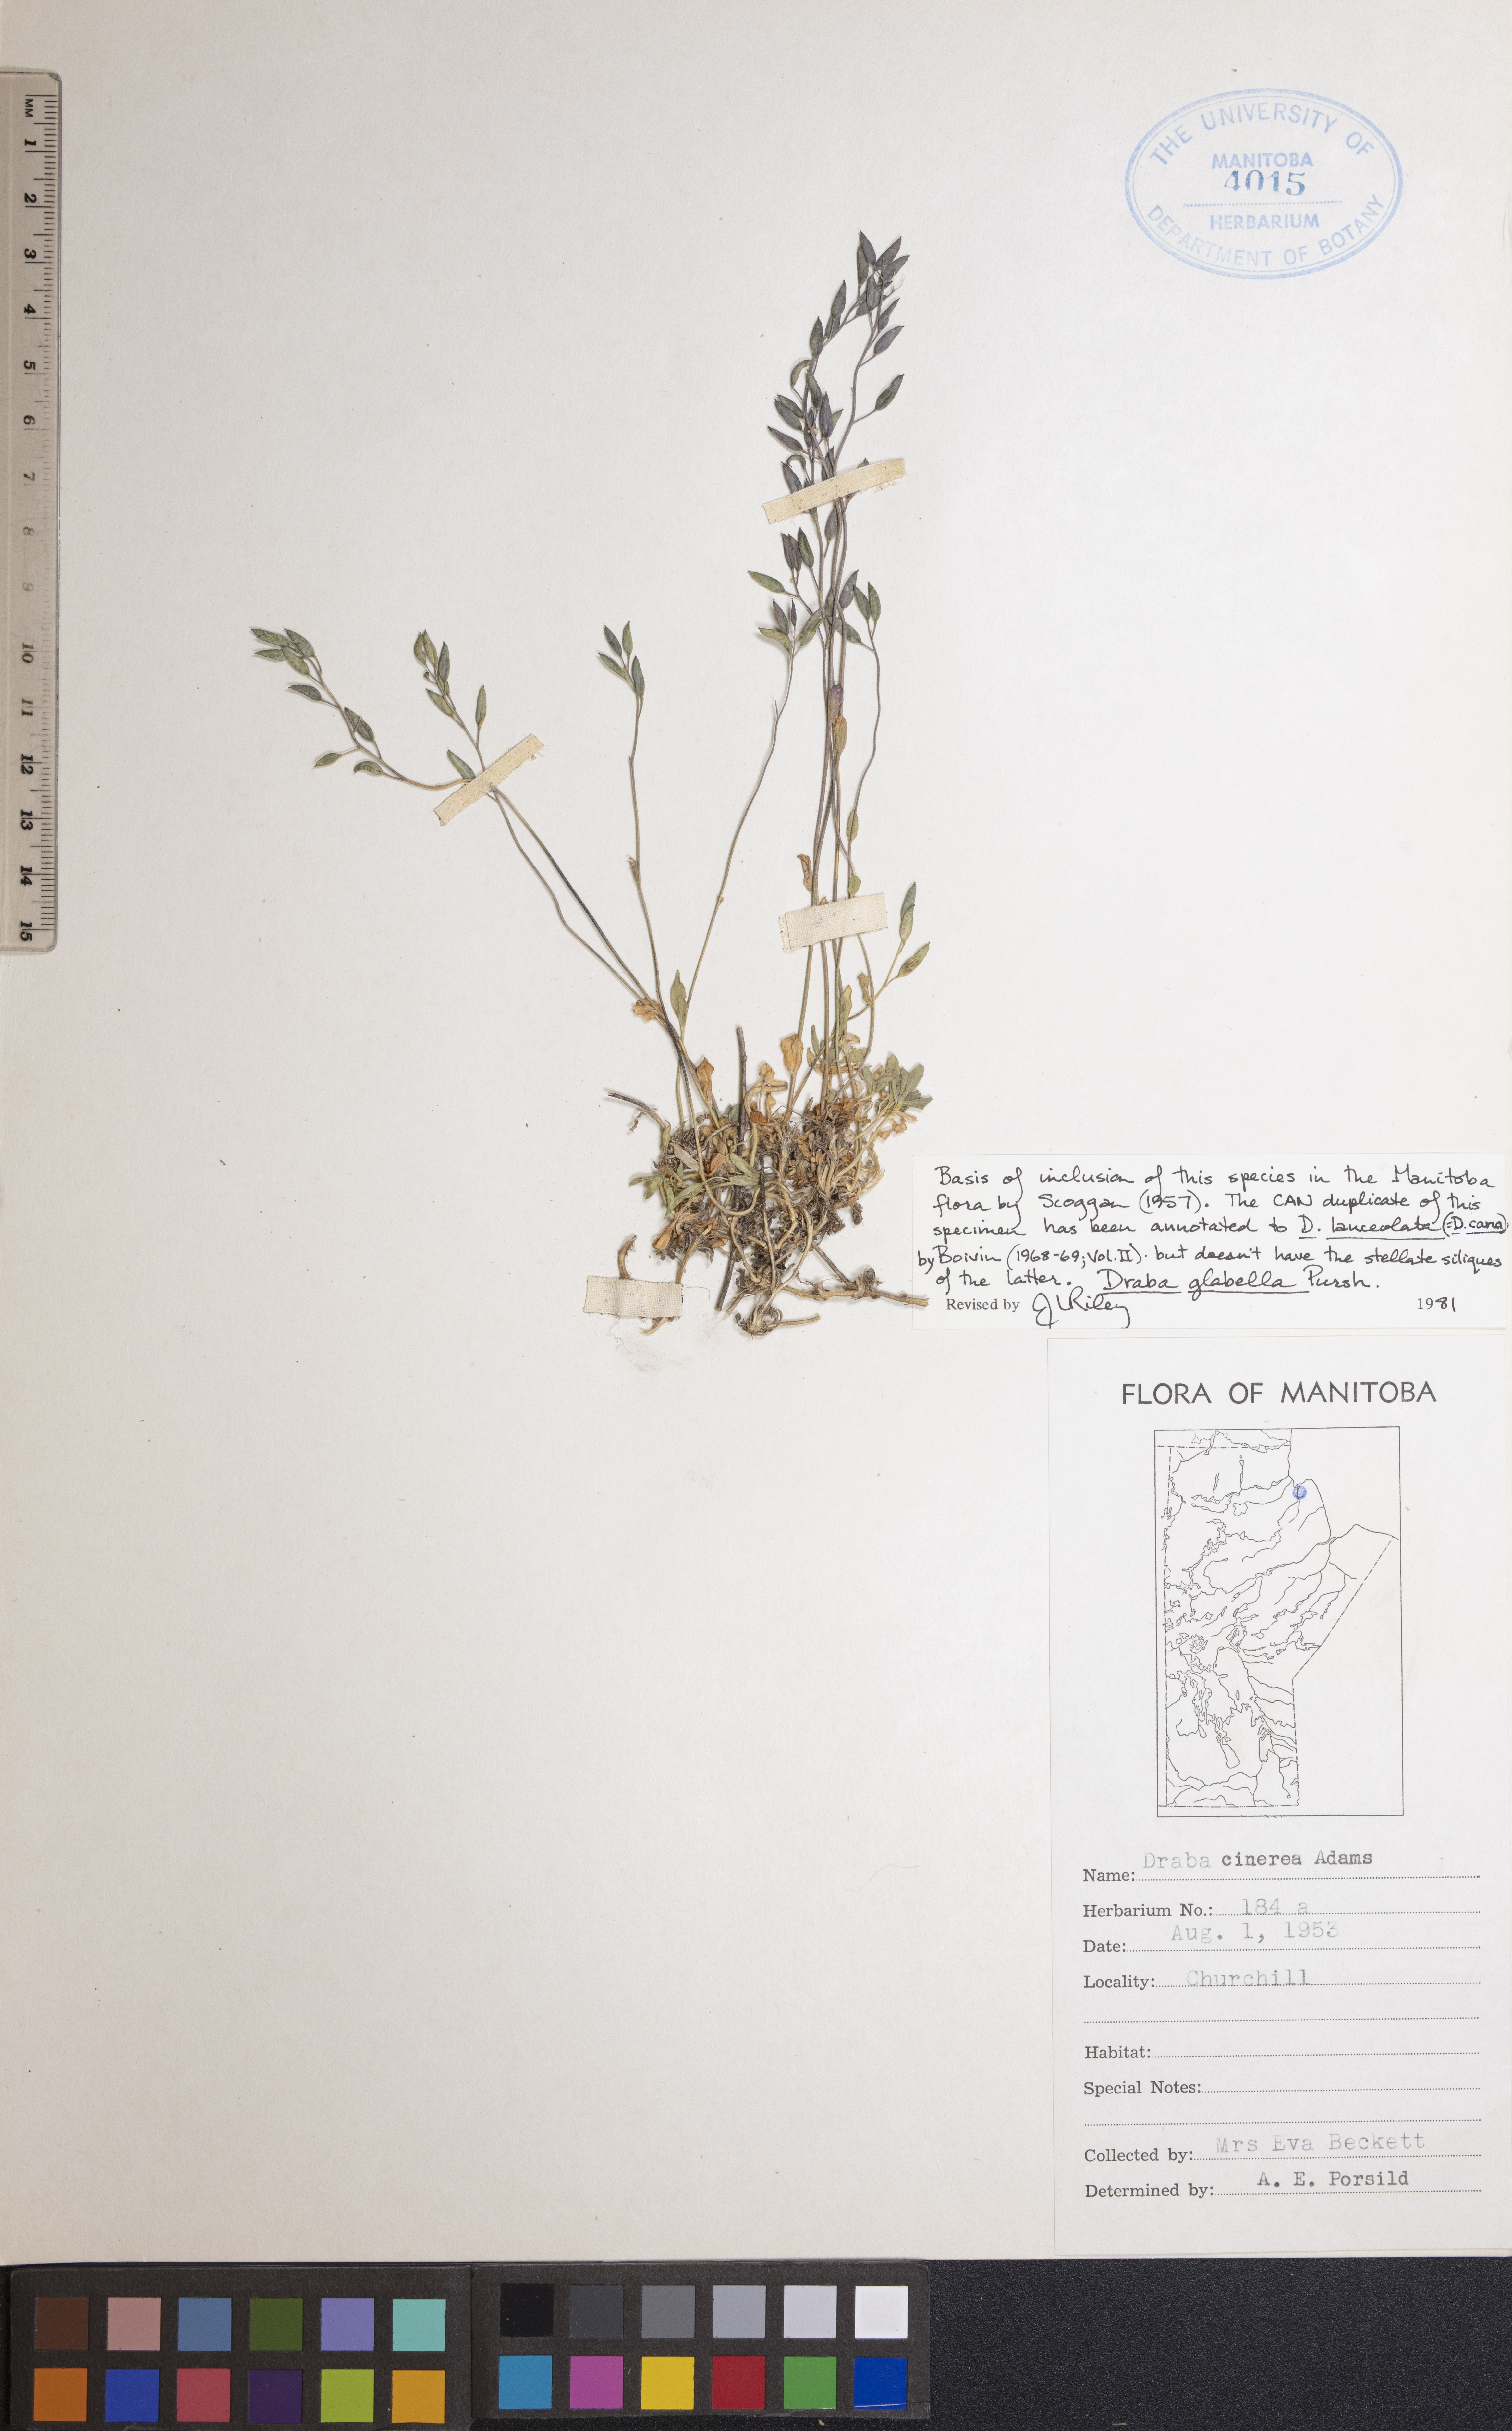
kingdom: Plantae
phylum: Tracheophyta
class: Magnoliopsida
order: Brassicales
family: Brassicaceae
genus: Draba
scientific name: Draba glabella
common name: Glaucous draba
